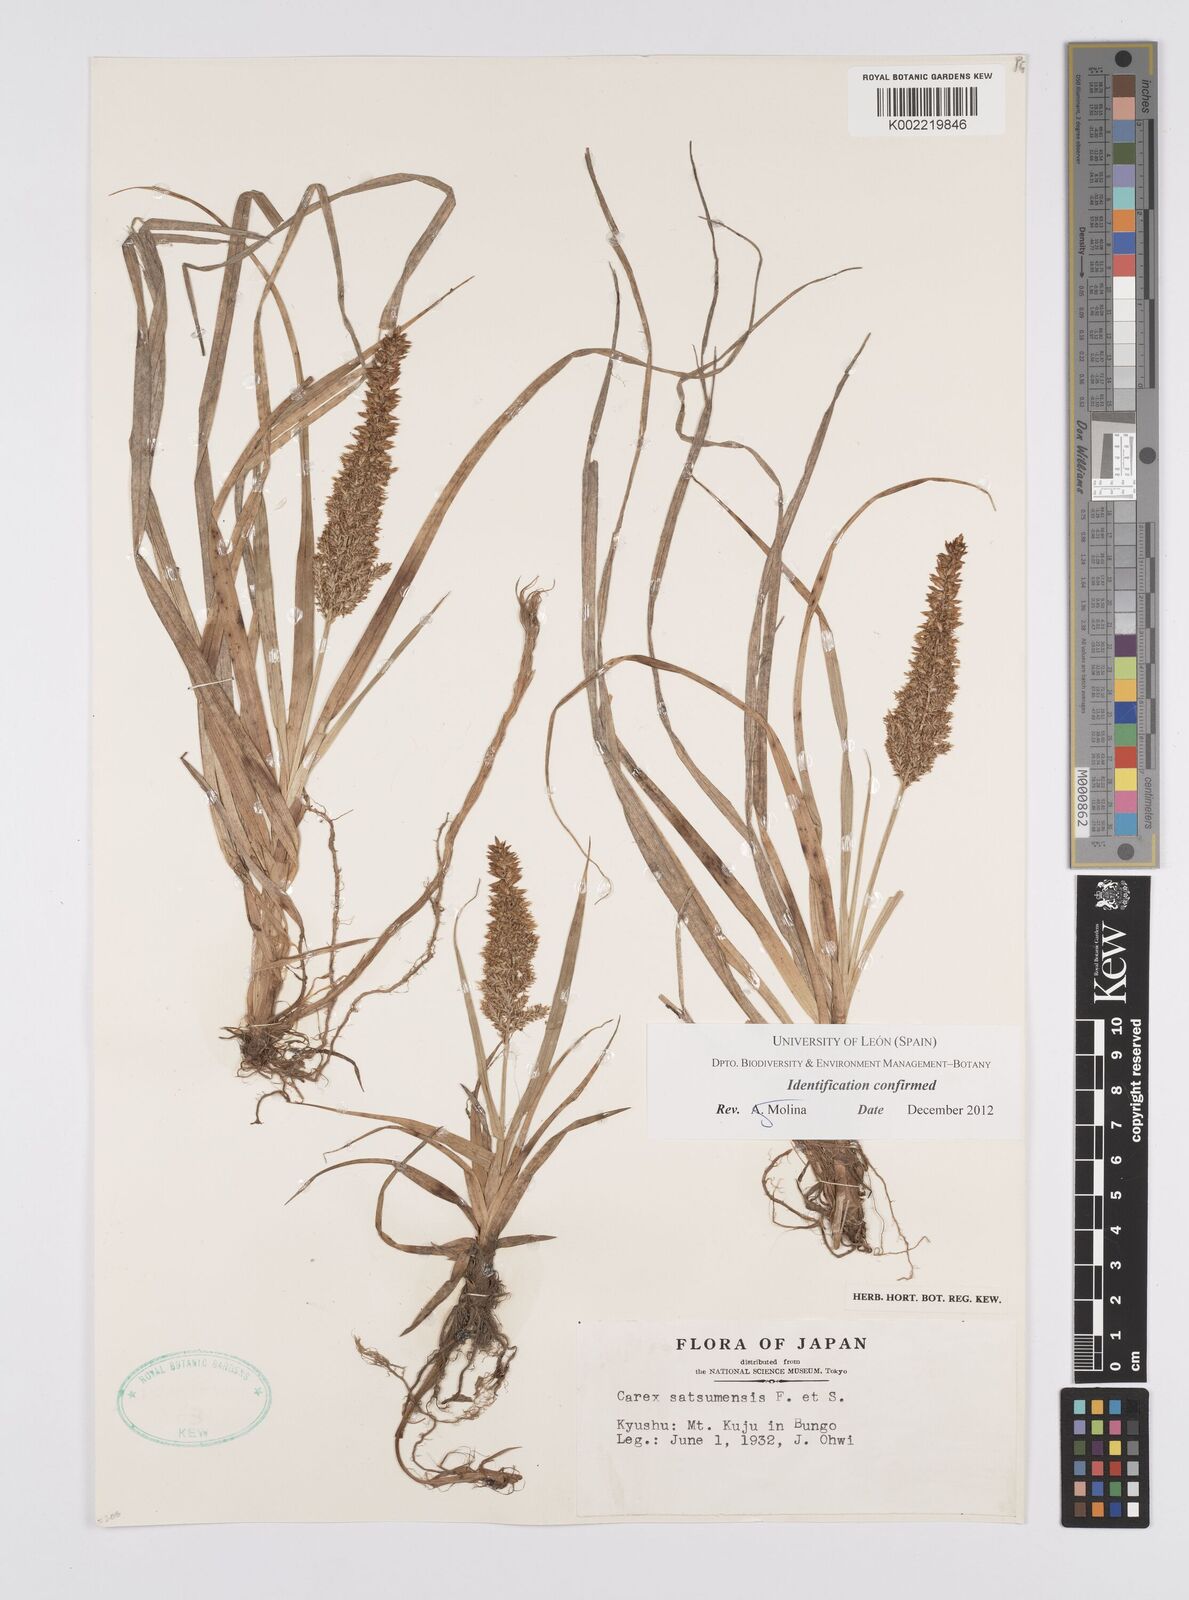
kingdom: Plantae
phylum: Tracheophyta
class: Liliopsida
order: Poales
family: Cyperaceae
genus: Carex
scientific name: Carex satsumensis
